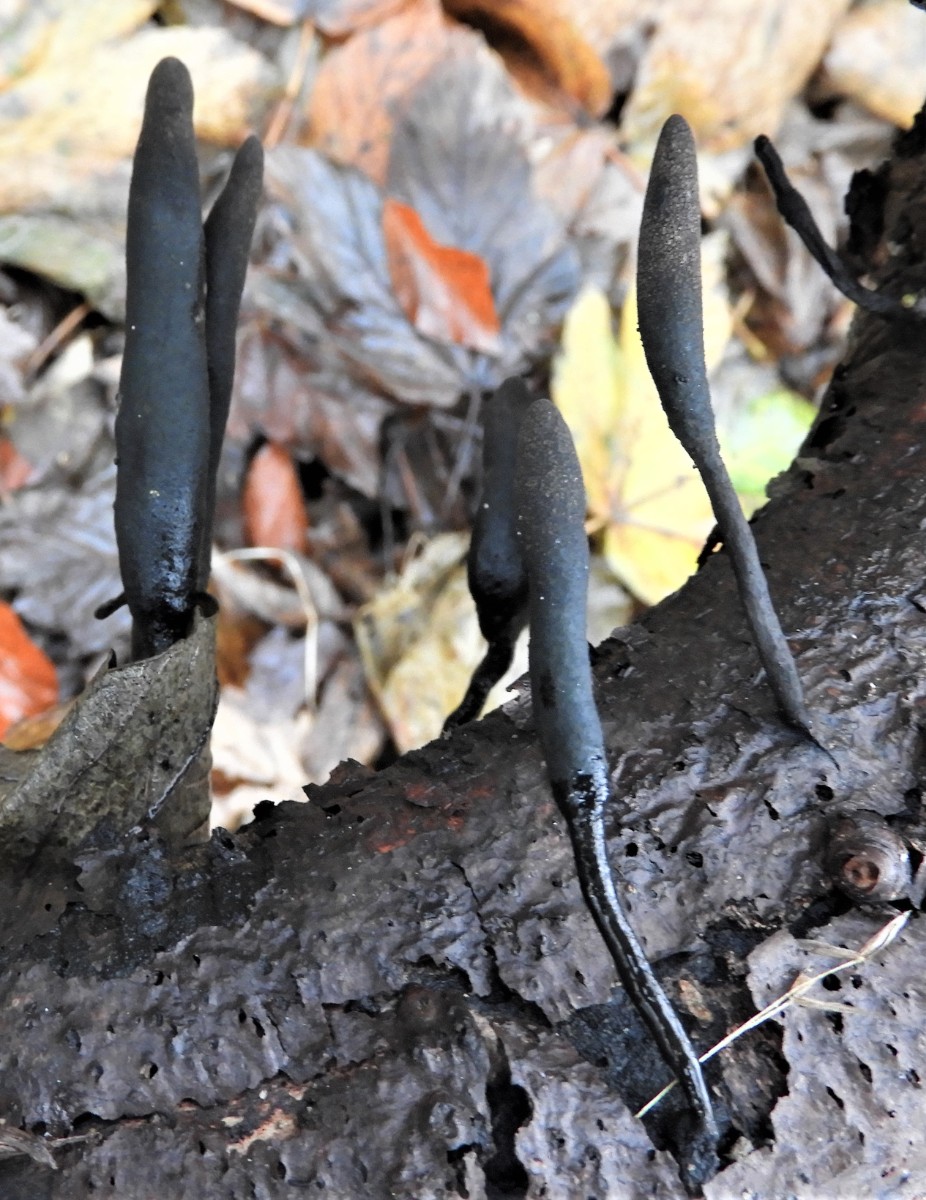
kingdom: Fungi
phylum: Ascomycota
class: Sordariomycetes
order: Xylariales
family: Xylariaceae
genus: Xylaria
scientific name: Xylaria longipes
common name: slank stødsvamp
